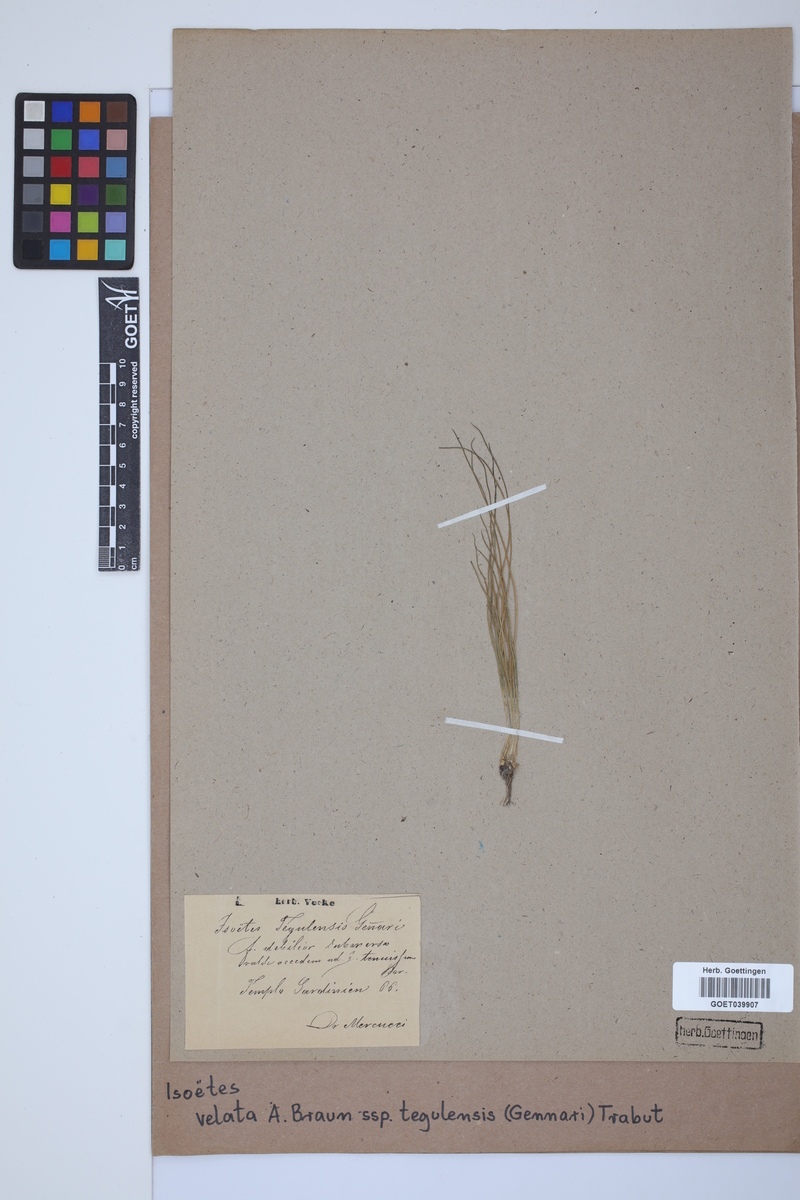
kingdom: Plantae
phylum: Tracheophyta
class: Lycopodiopsida
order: Isoetales
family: Isoetaceae
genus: Isoetes
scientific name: Isoetes tiguliana
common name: Sardinian quillwort
